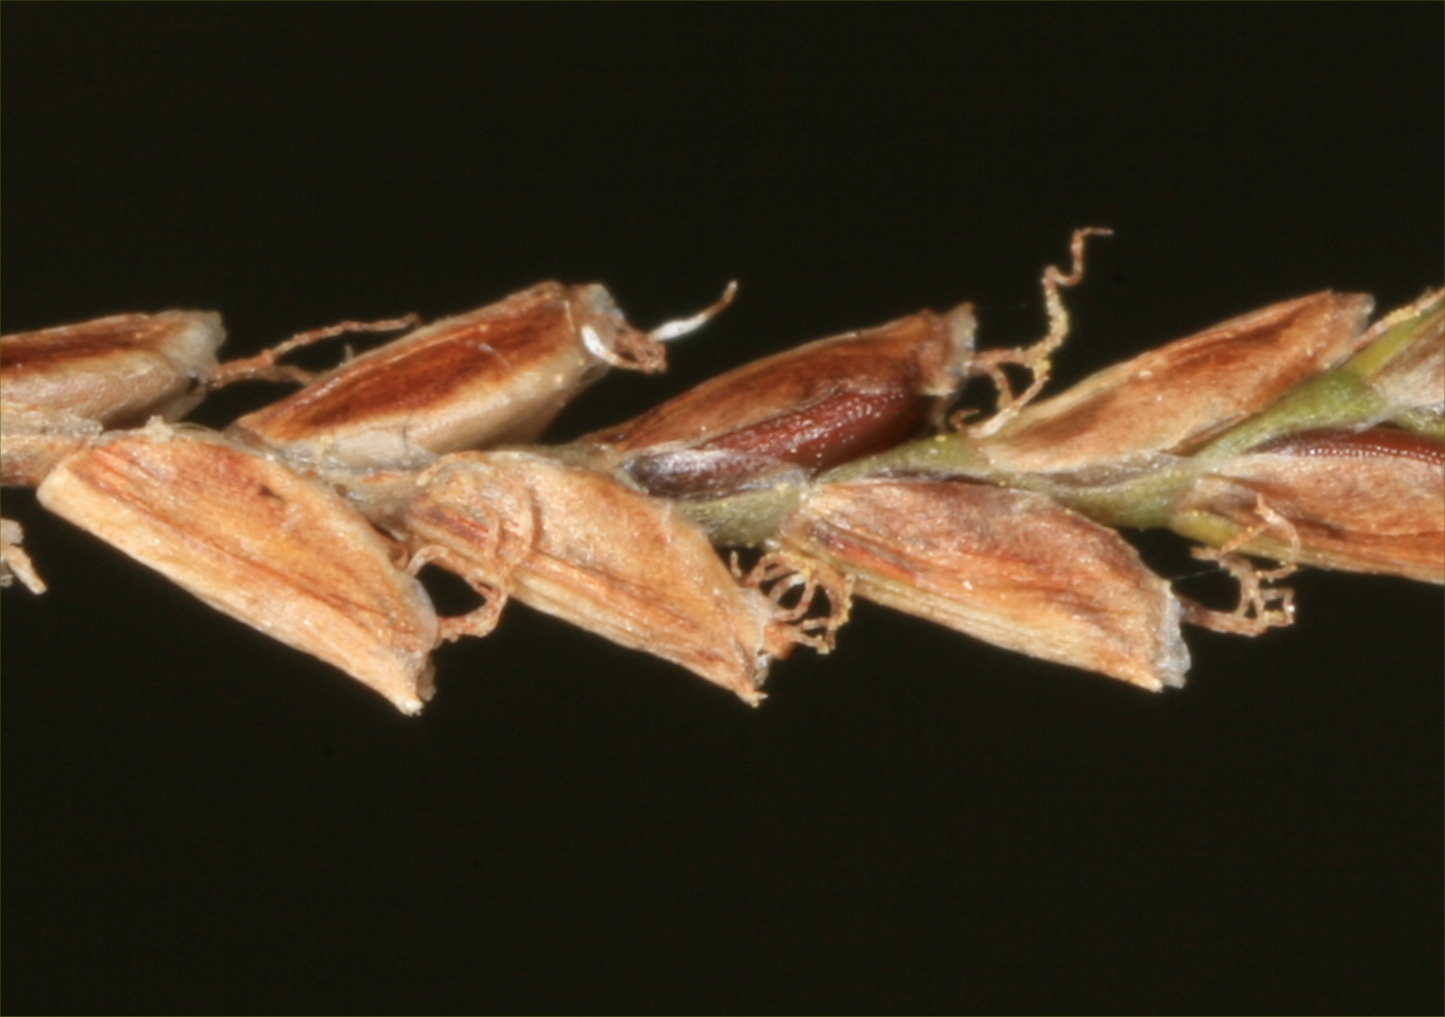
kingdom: Plantae
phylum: Tracheophyta
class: Liliopsida
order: Poales
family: Cyperaceae
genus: Cyperus
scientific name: Cyperus distans
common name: Slender cyperus
